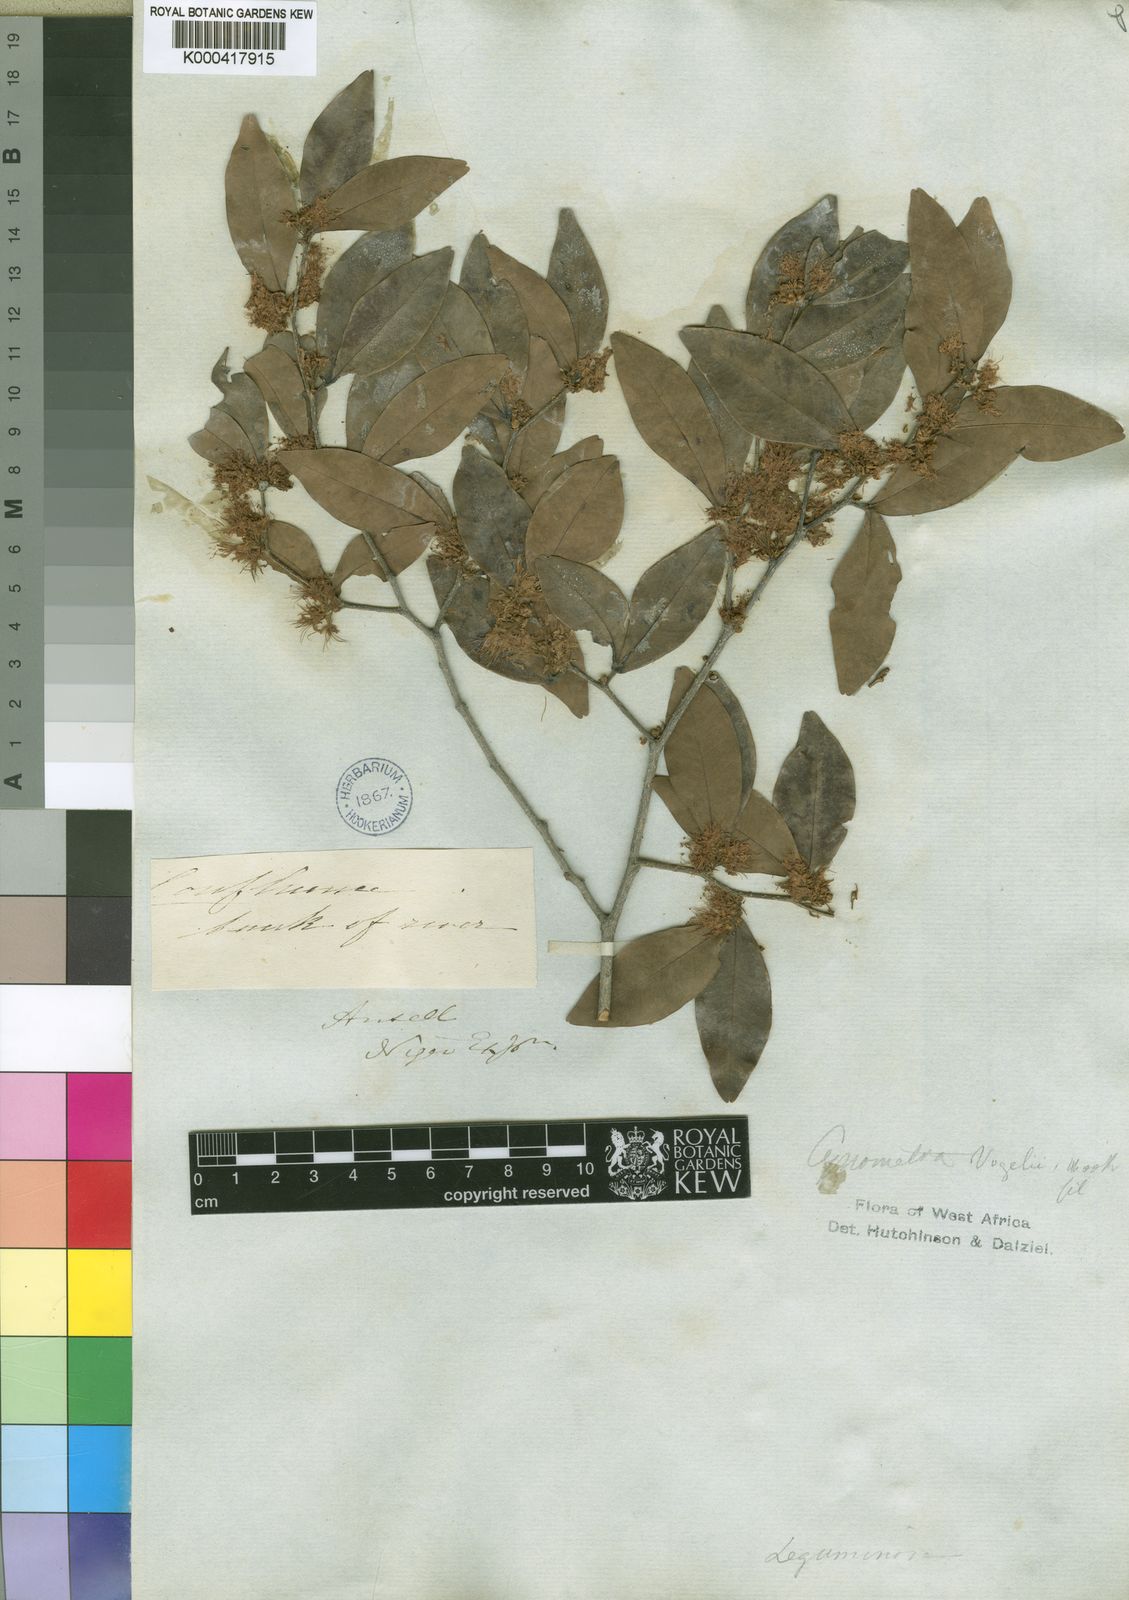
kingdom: Plantae
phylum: Tracheophyta
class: Magnoliopsida
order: Fabales
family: Fabaceae
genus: Cynometra
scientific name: Cynometra vogelii
